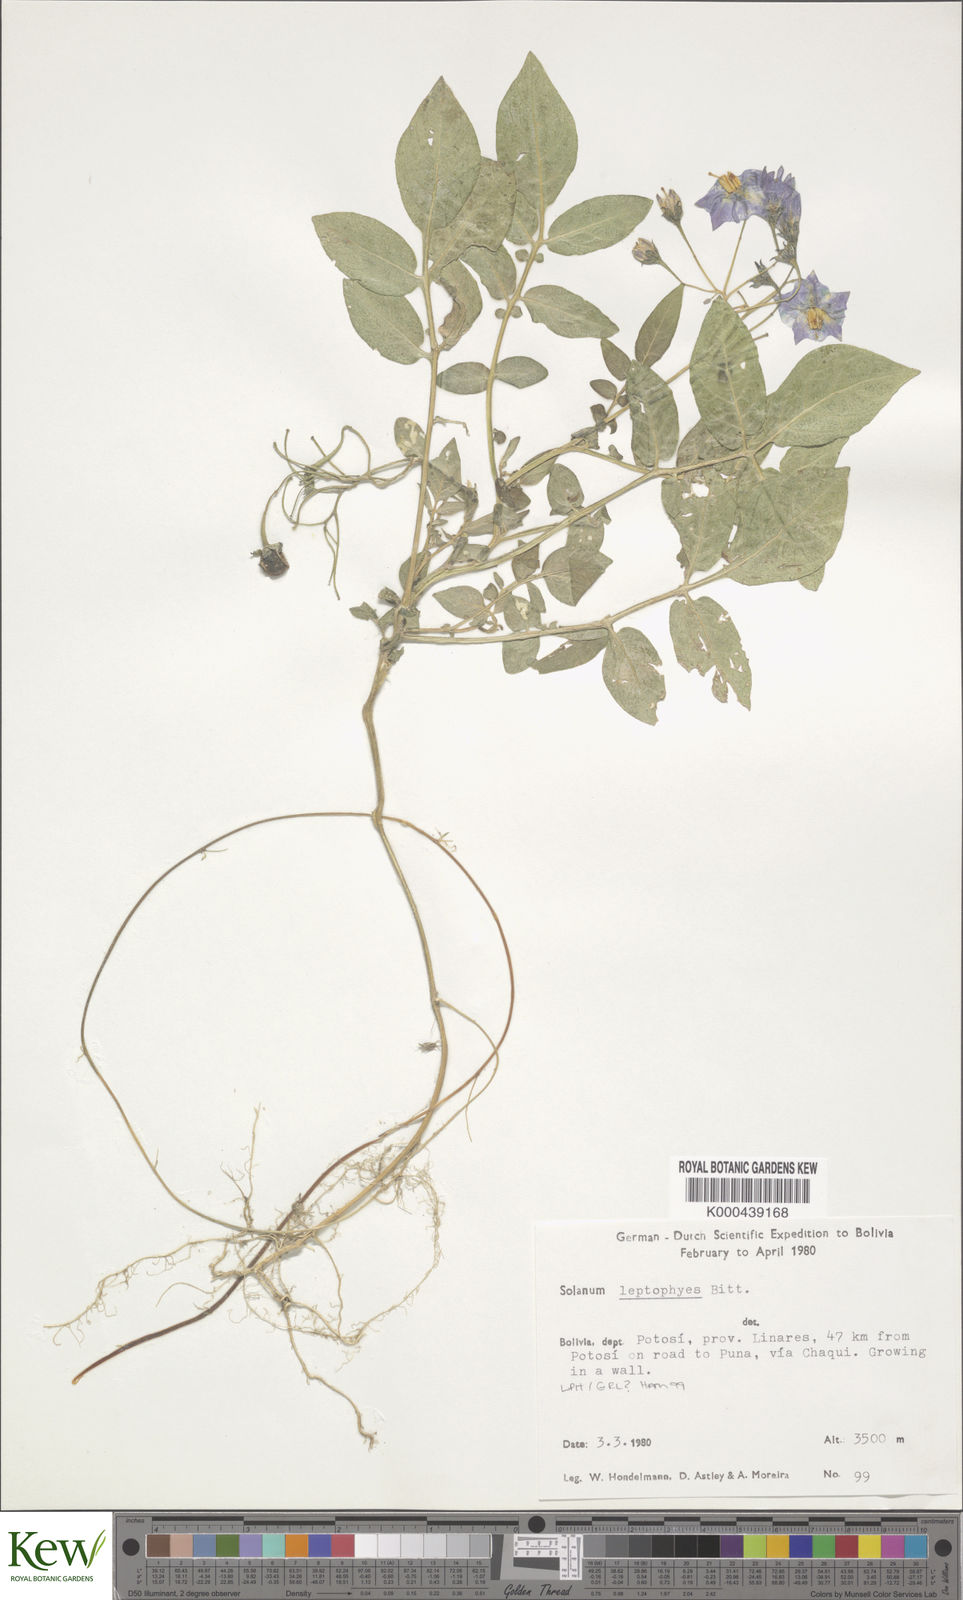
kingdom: Plantae
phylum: Tracheophyta
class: Magnoliopsida
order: Solanales
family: Solanaceae
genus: Solanum
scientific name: Solanum brevicaule
